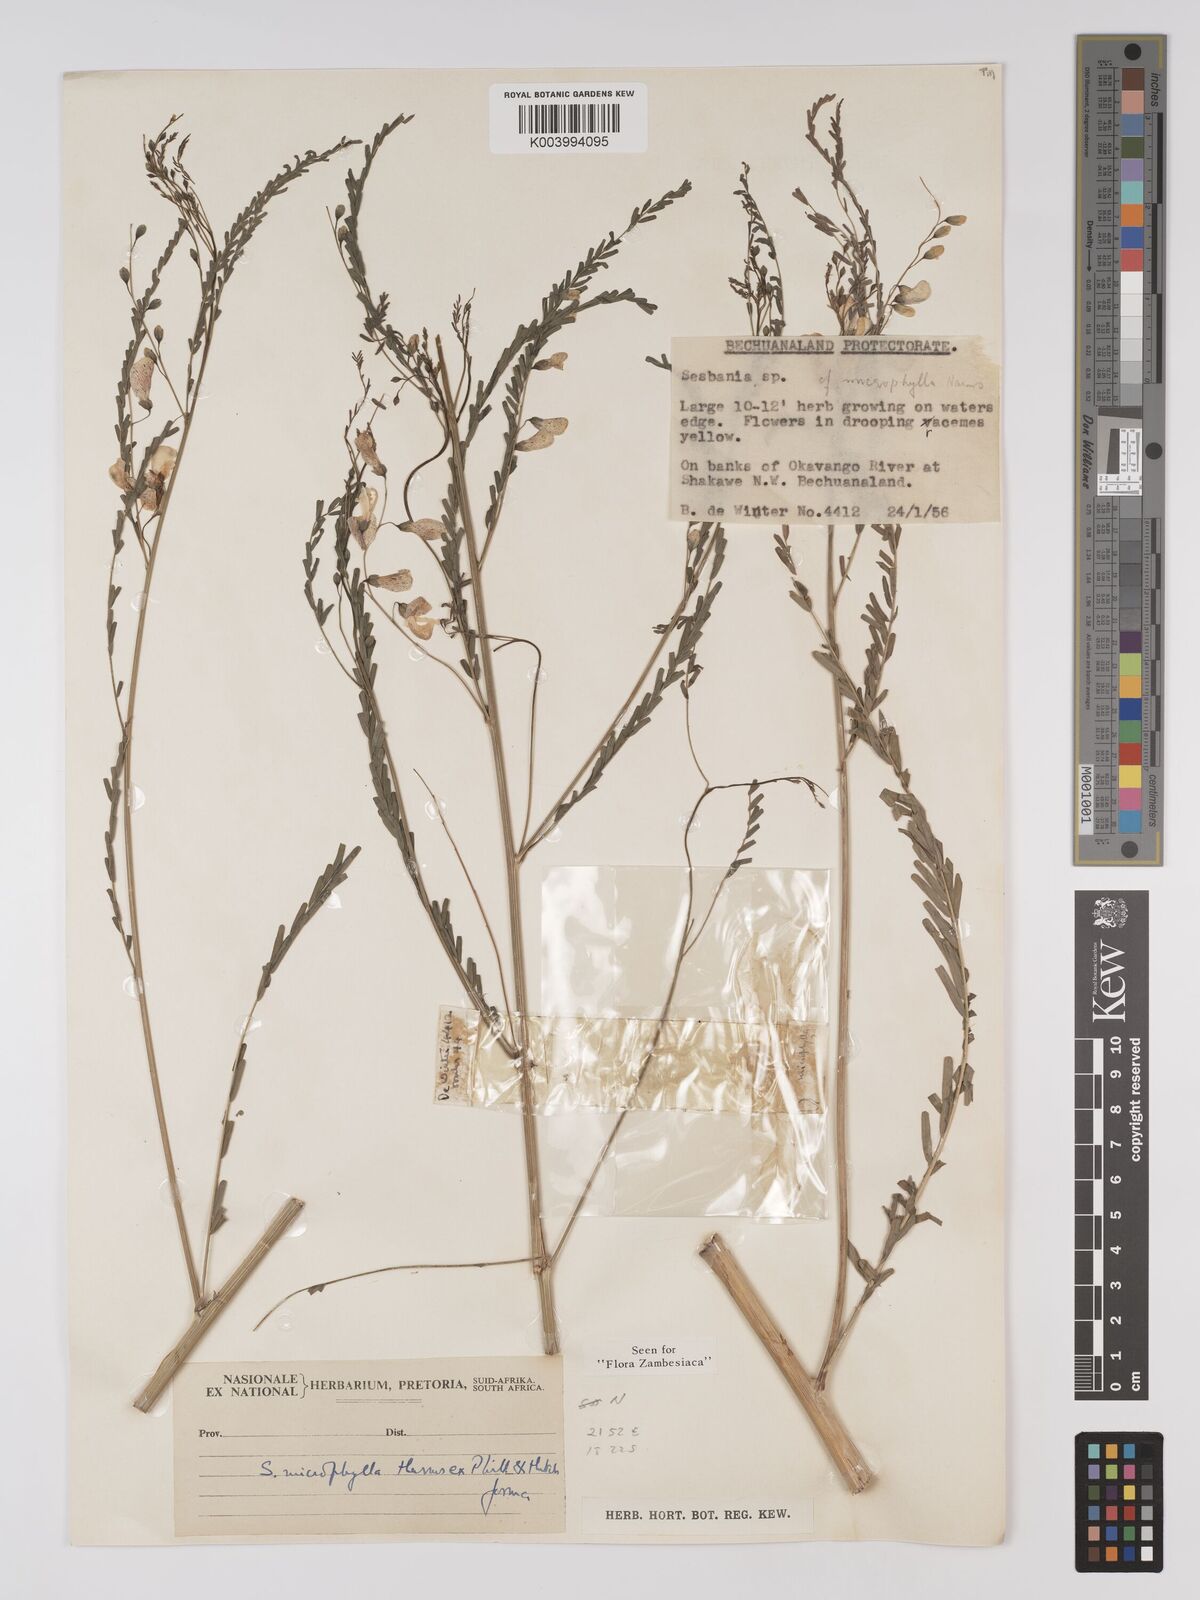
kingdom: Plantae
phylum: Tracheophyta
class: Magnoliopsida
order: Fabales
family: Fabaceae
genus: Sesbania
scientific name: Sesbania microphylla
